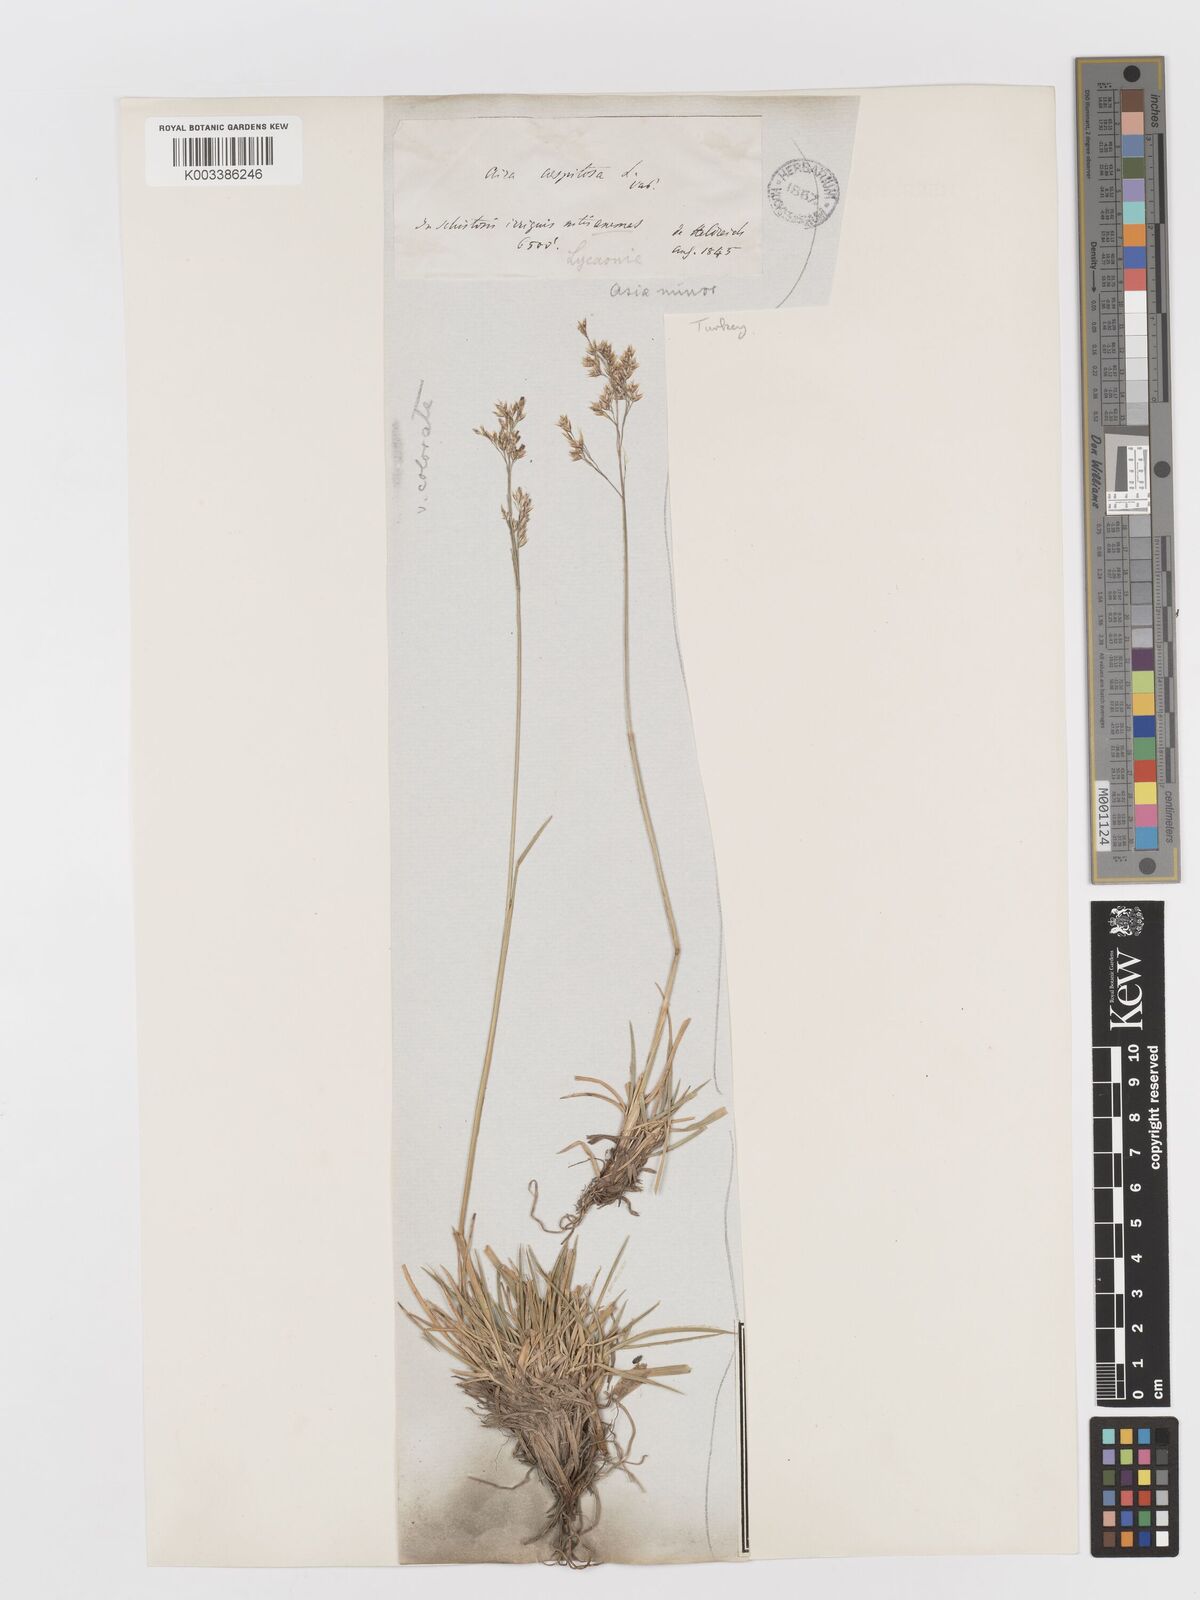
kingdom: Plantae
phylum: Tracheophyta
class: Liliopsida
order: Poales
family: Poaceae
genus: Deschampsia
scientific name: Deschampsia cespitosa
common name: Tufted hair-grass
